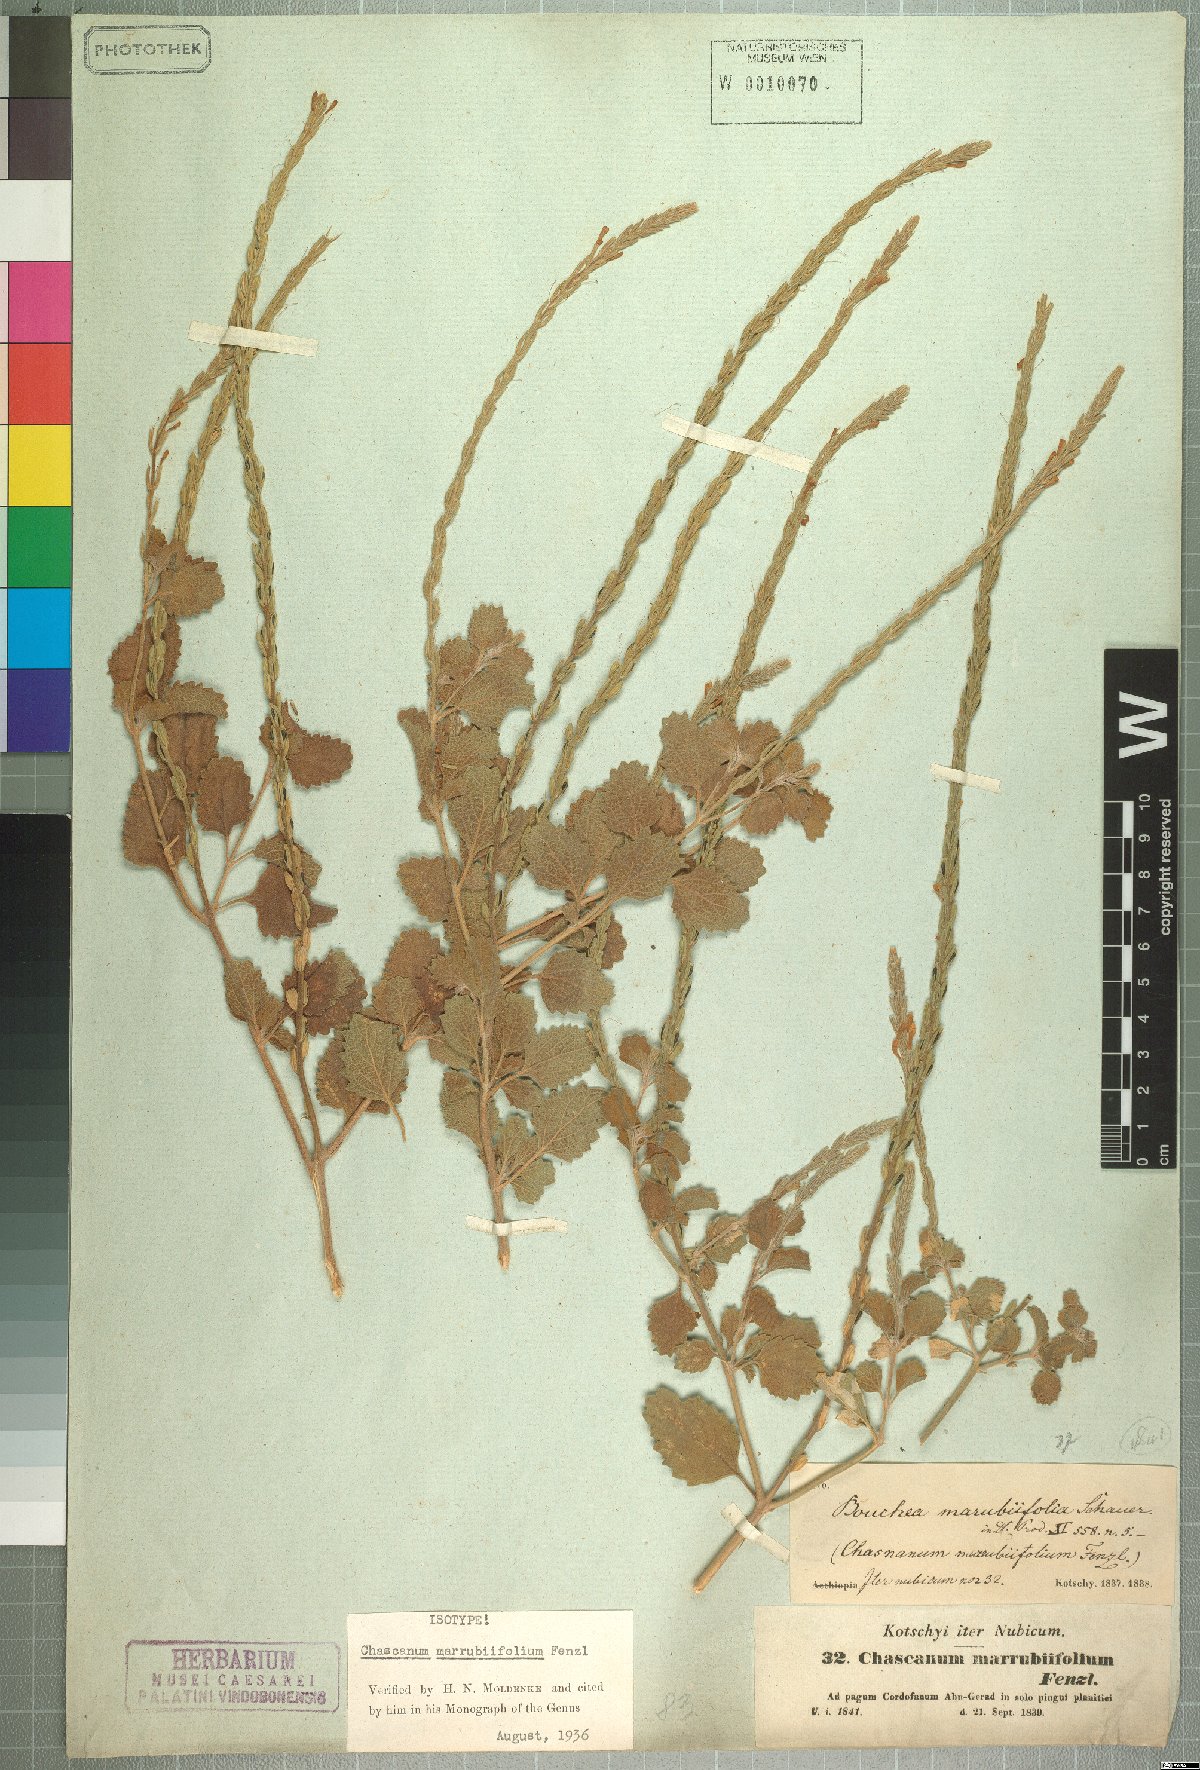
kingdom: Plantae
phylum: Tracheophyta
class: Magnoliopsida
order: Lamiales
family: Verbenaceae
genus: Chascanum
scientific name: Chascanum marrubiifolium
